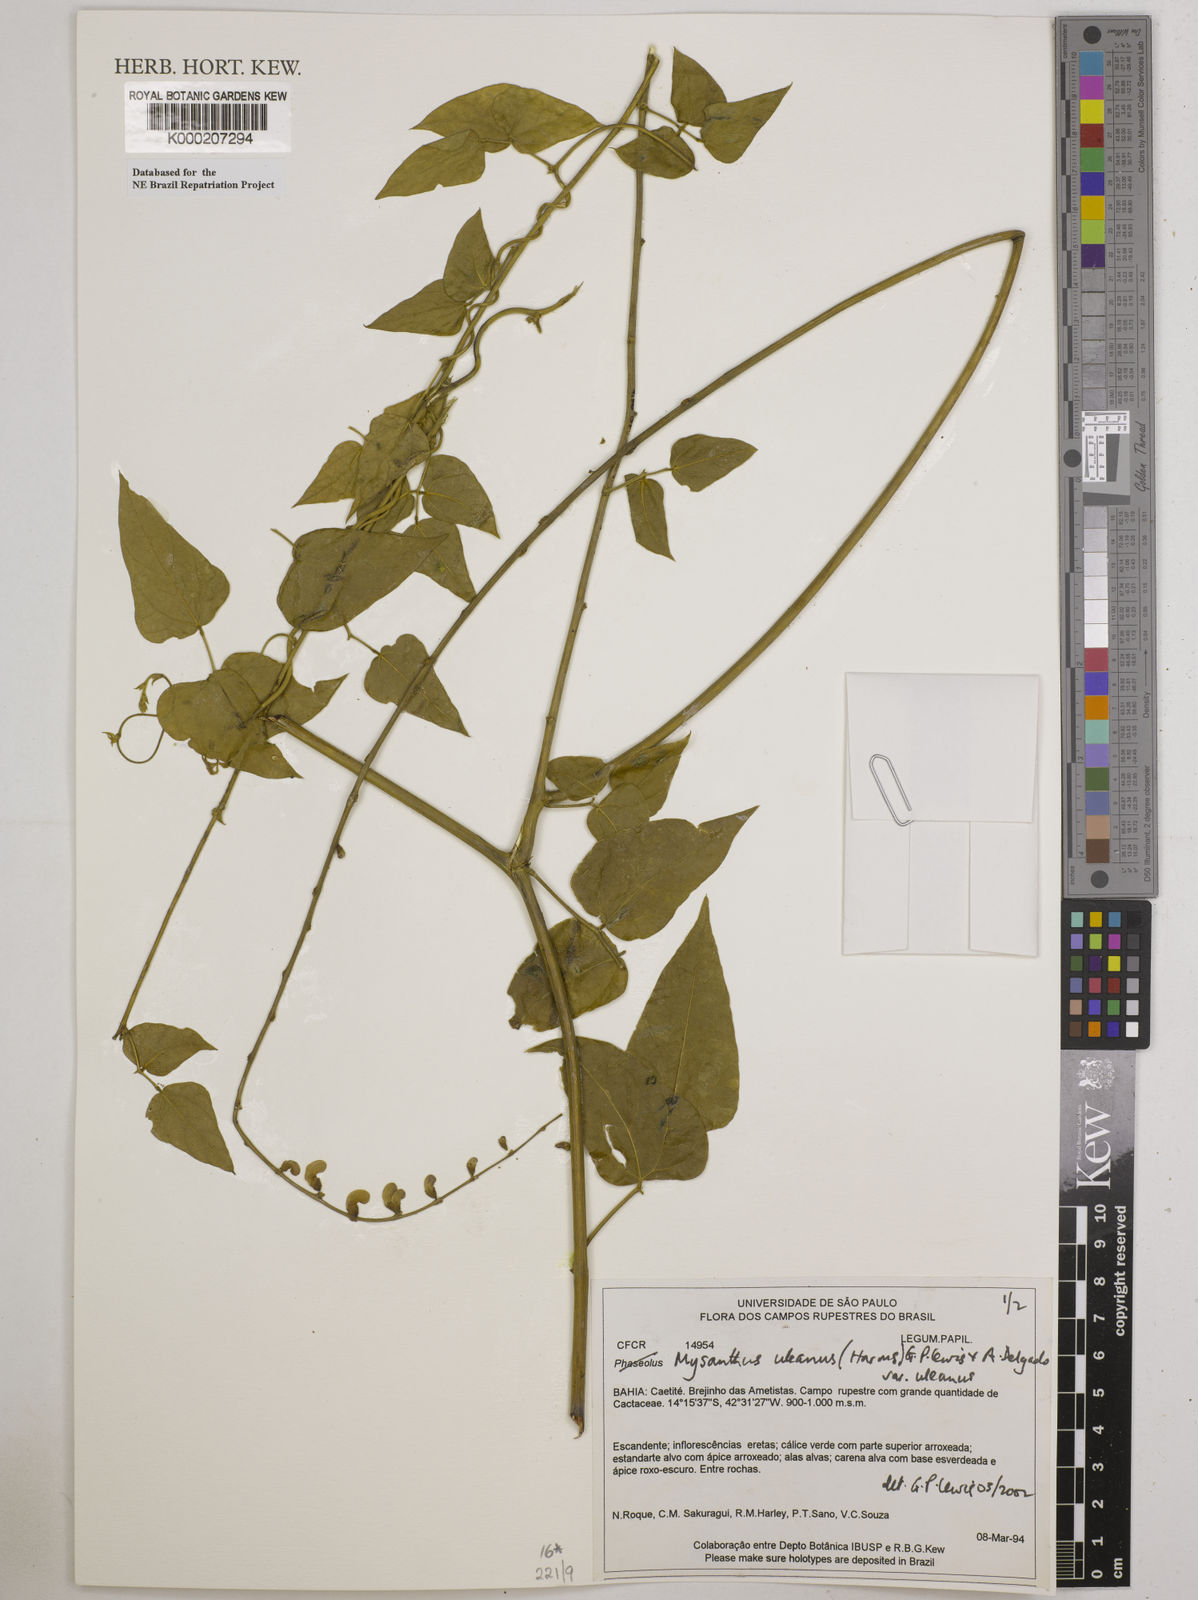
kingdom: Plantae
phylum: Tracheophyta
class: Magnoliopsida
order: Fabales
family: Fabaceae
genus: Mysanthus
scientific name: Mysanthus uleanus
